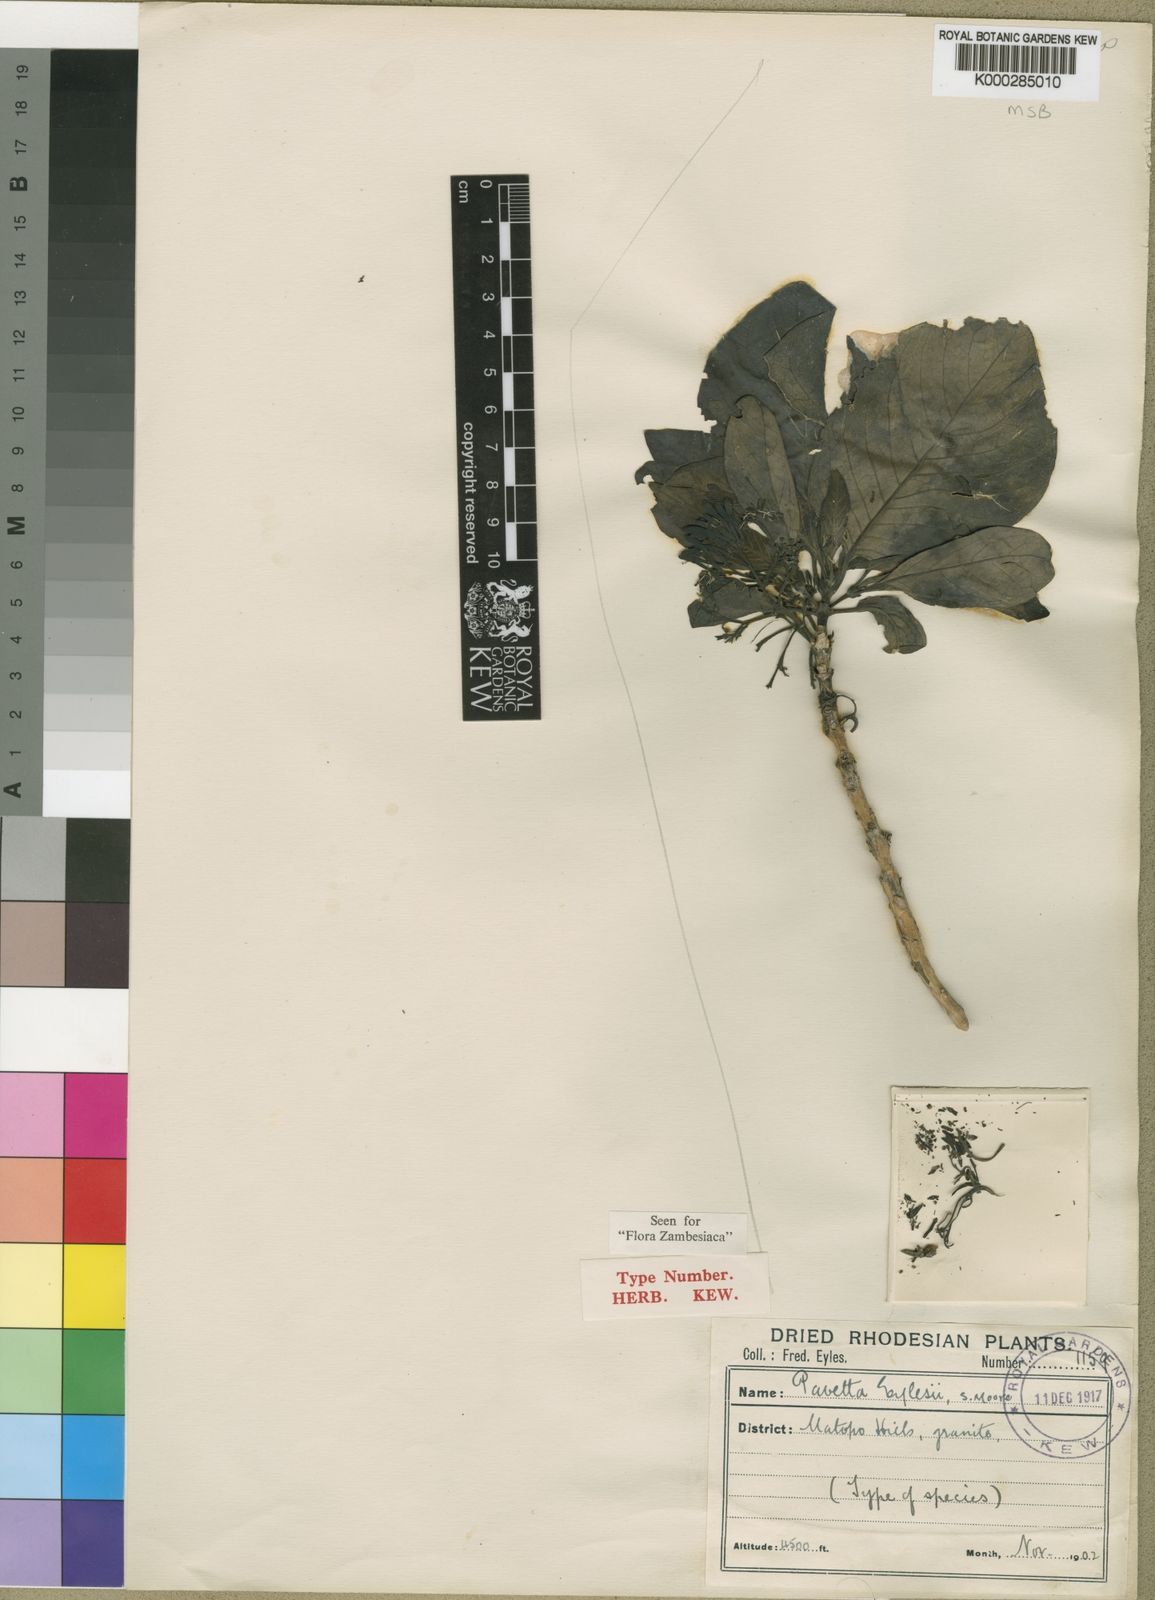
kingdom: Plantae
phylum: Tracheophyta
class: Magnoliopsida
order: Gentianales
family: Rubiaceae
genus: Pavetta
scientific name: Pavetta eylesii
